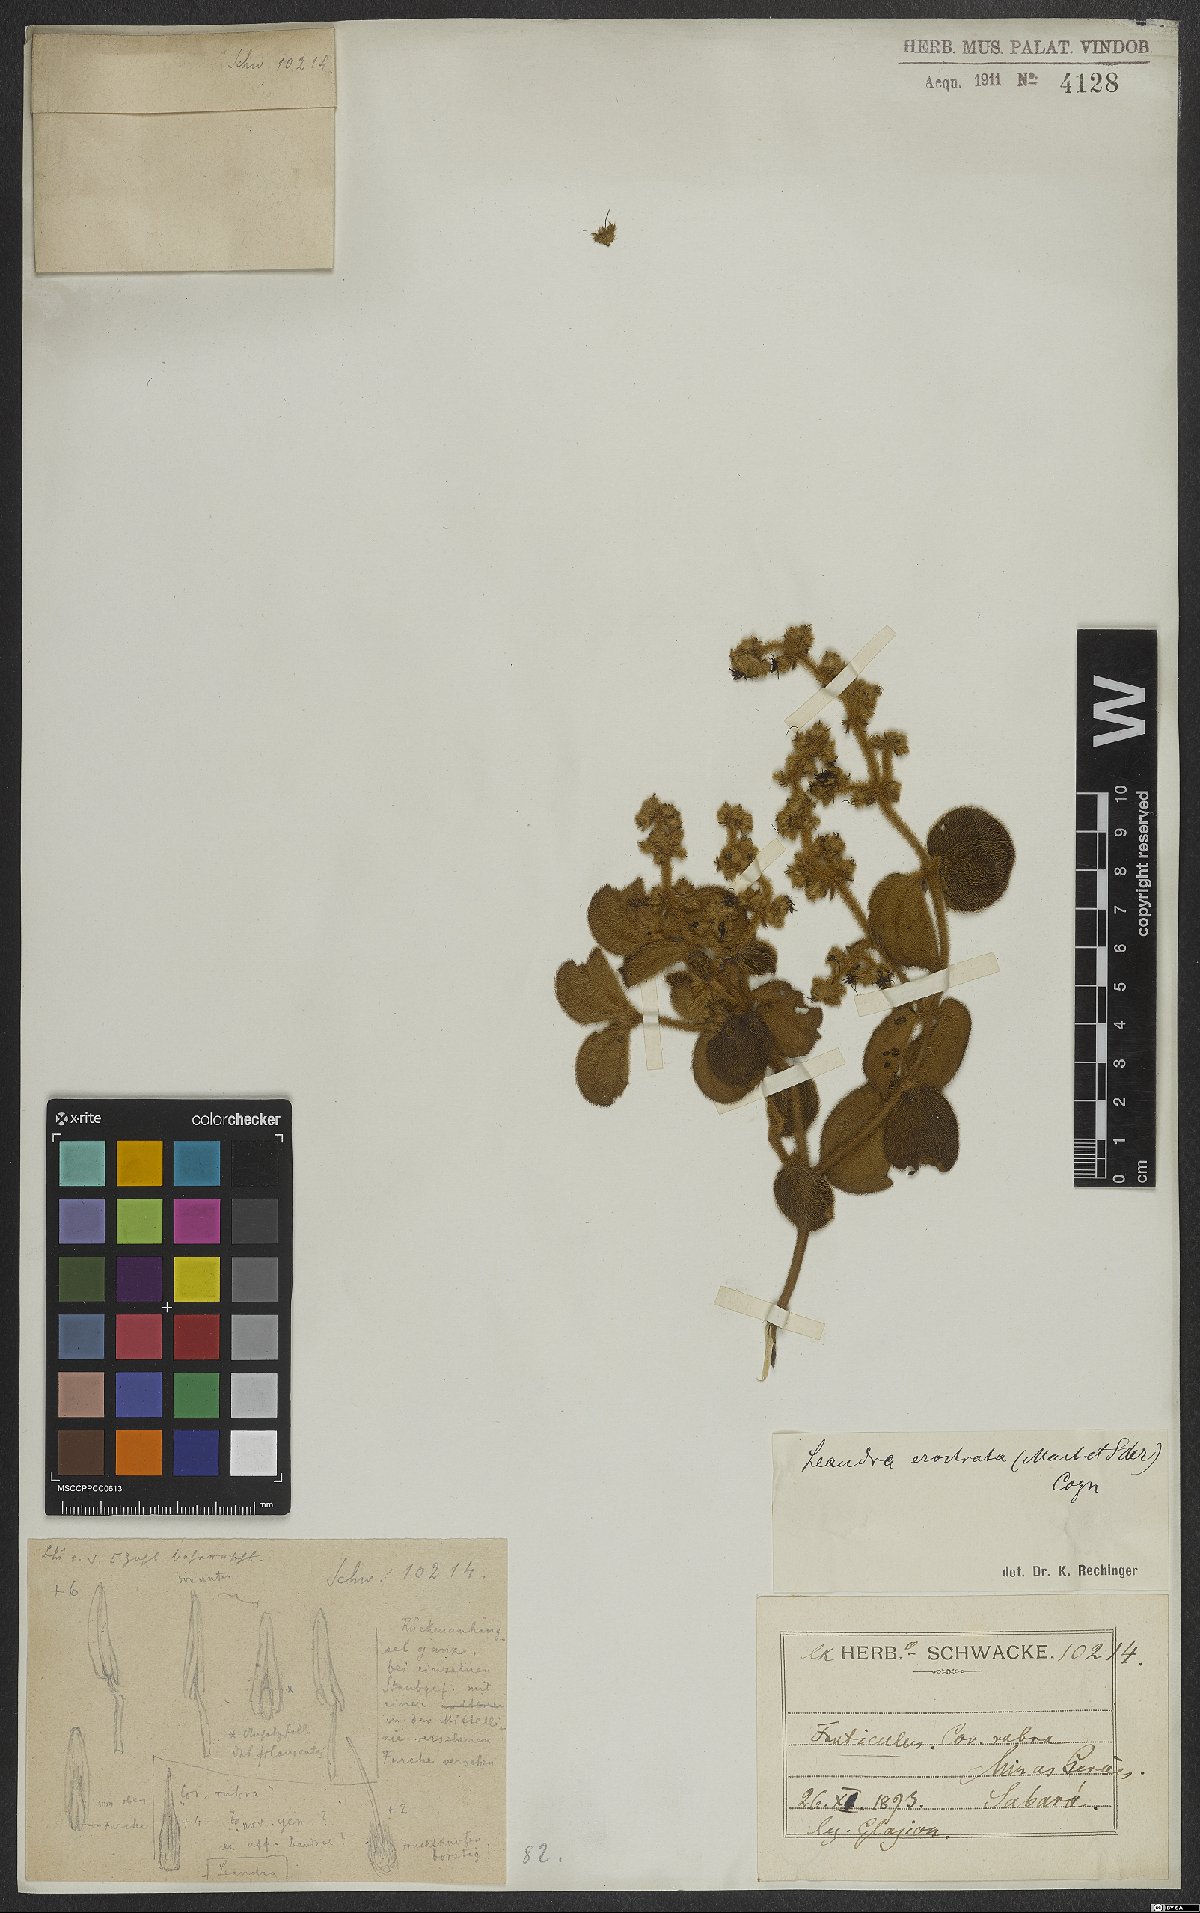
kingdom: Plantae
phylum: Tracheophyta
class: Magnoliopsida
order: Myrtales
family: Melastomataceae
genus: Miconia
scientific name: Miconia erostrata
